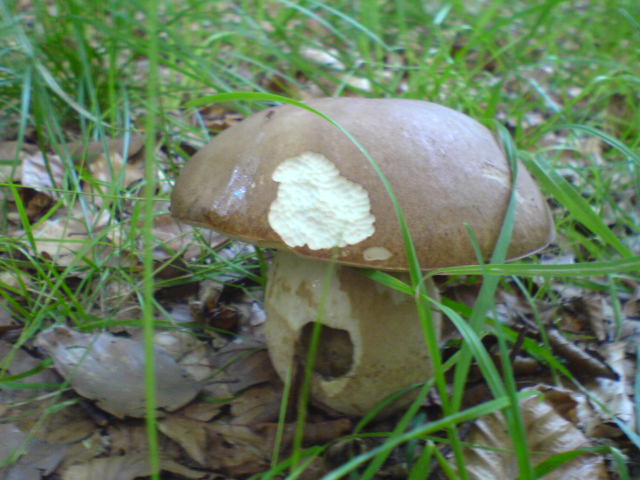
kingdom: Fungi
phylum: Basidiomycota
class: Agaricomycetes
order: Boletales
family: Boletaceae
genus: Boletus
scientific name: Boletus reticulatus
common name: sommer-rørhat
